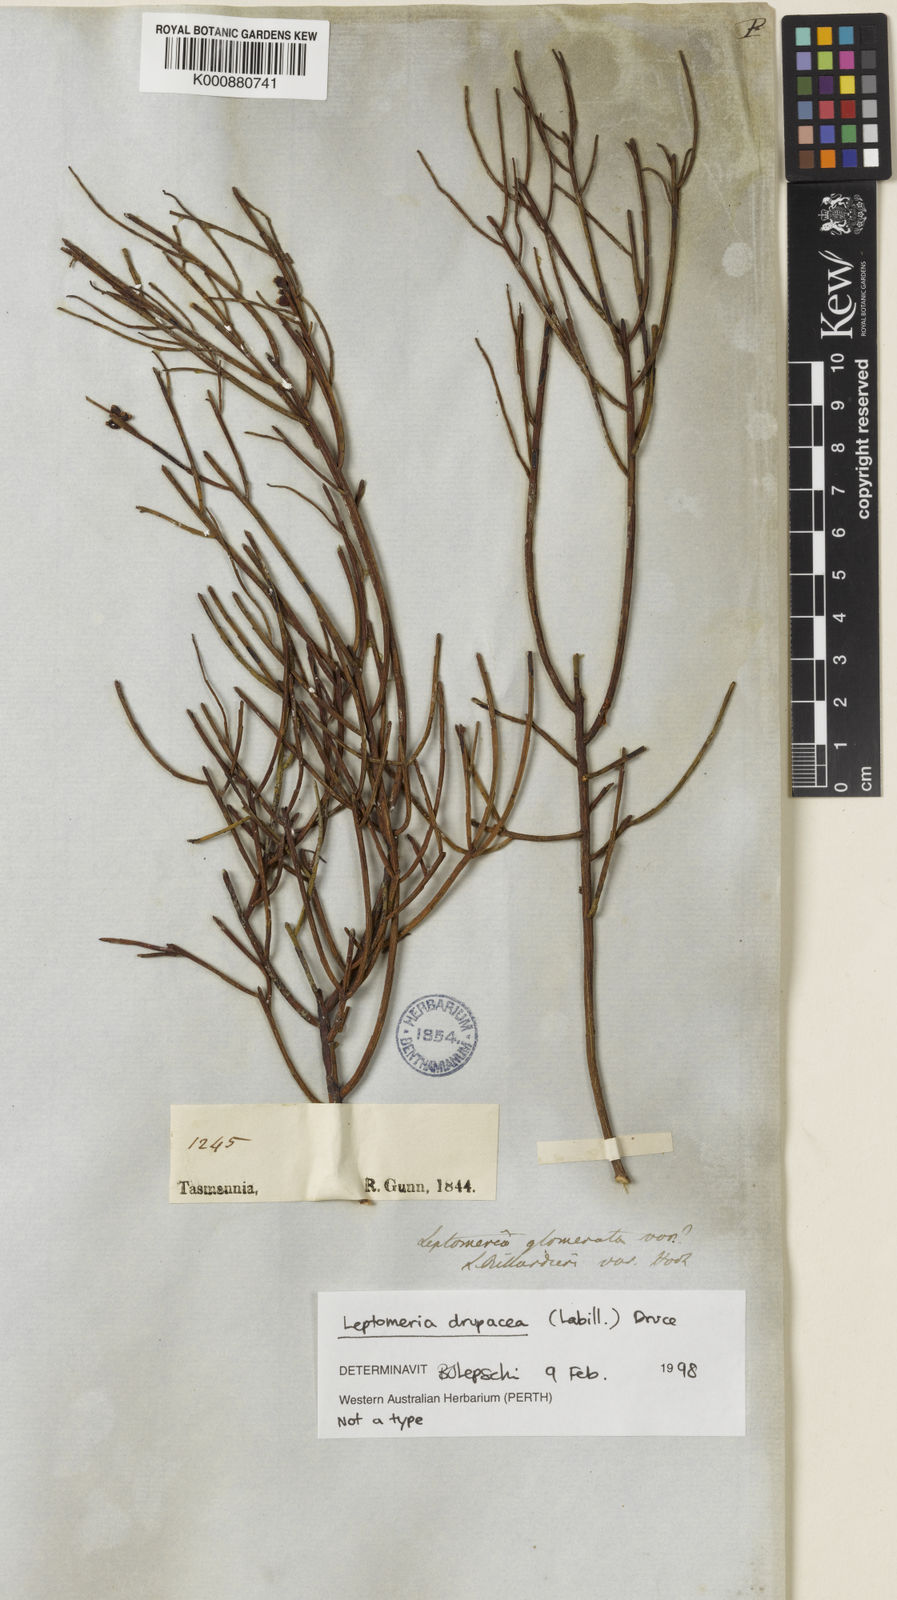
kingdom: Plantae
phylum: Tracheophyta
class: Magnoliopsida
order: Santalales
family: Amphorogynaceae
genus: Leptomeria
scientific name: Leptomeria drupacea
